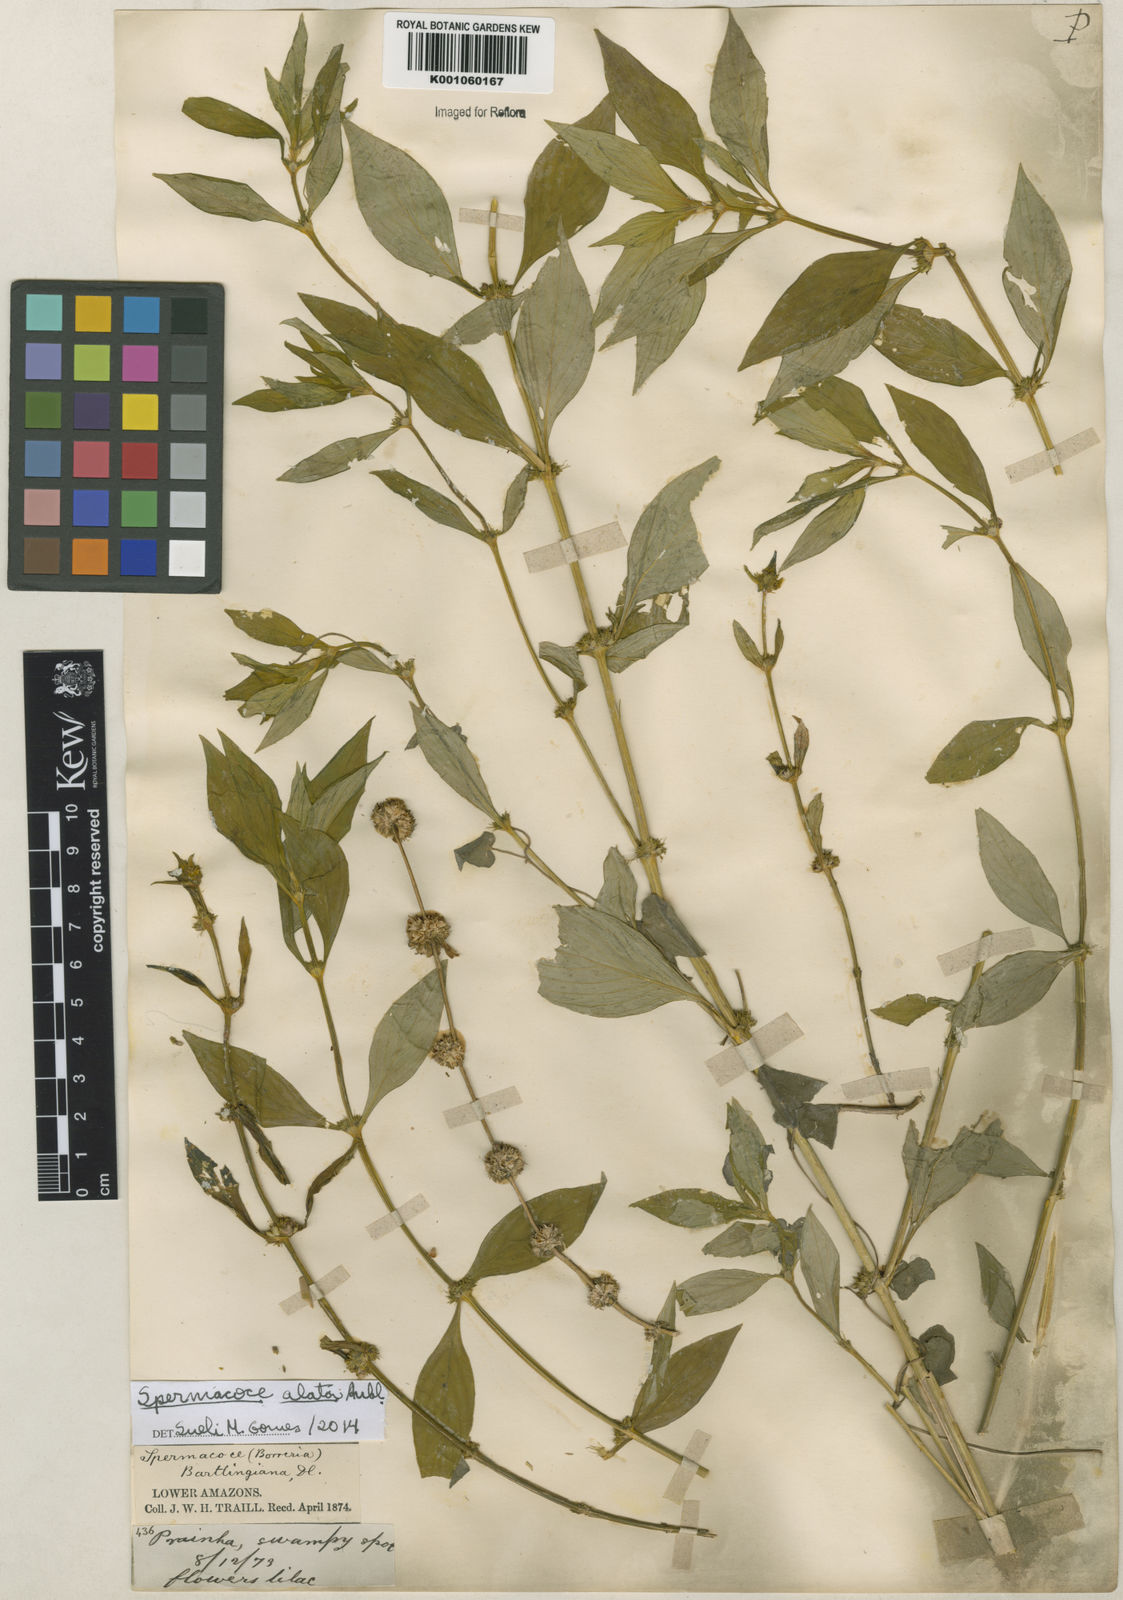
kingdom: Plantae
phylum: Tracheophyta
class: Magnoliopsida
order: Gentianales
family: Rubiaceae
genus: Spermacoce
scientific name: Spermacoce
